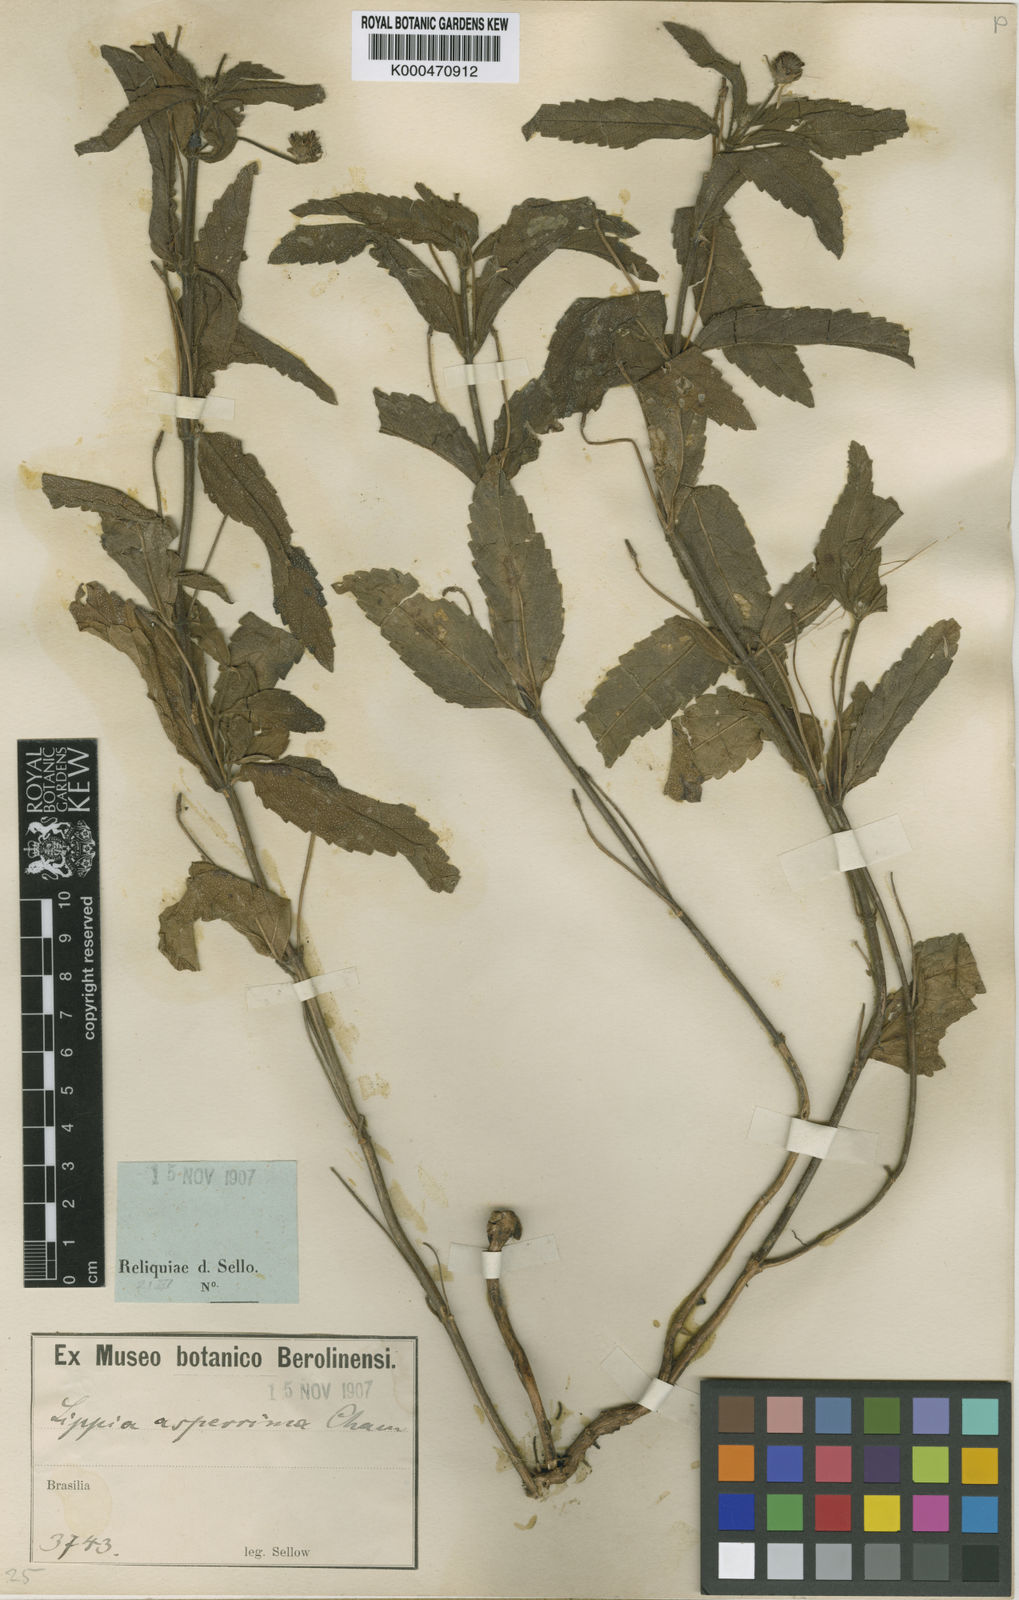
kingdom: Plantae
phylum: Tracheophyta
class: Magnoliopsida
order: Lamiales
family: Verbenaceae
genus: Lippia
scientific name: Lippia asperrima
